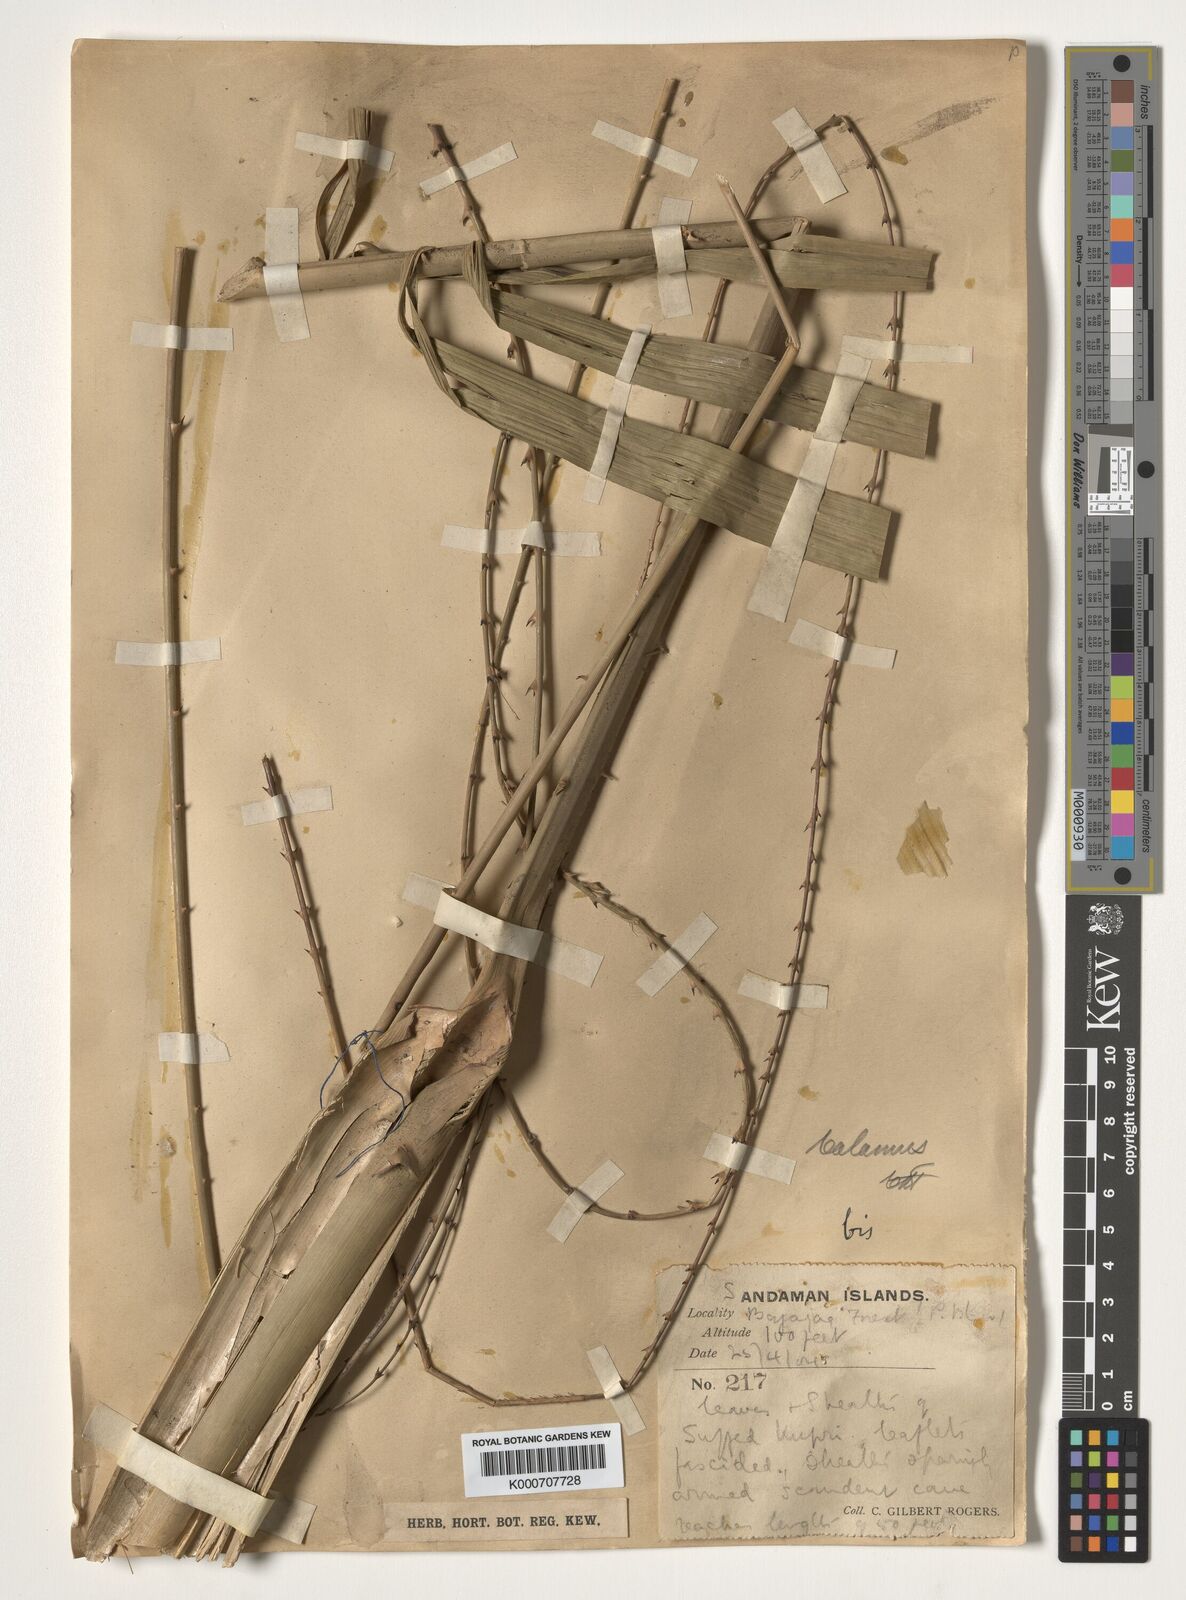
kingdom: Plantae
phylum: Tracheophyta
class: Liliopsida
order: Arecales
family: Arecaceae
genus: Calamus
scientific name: Calamus
